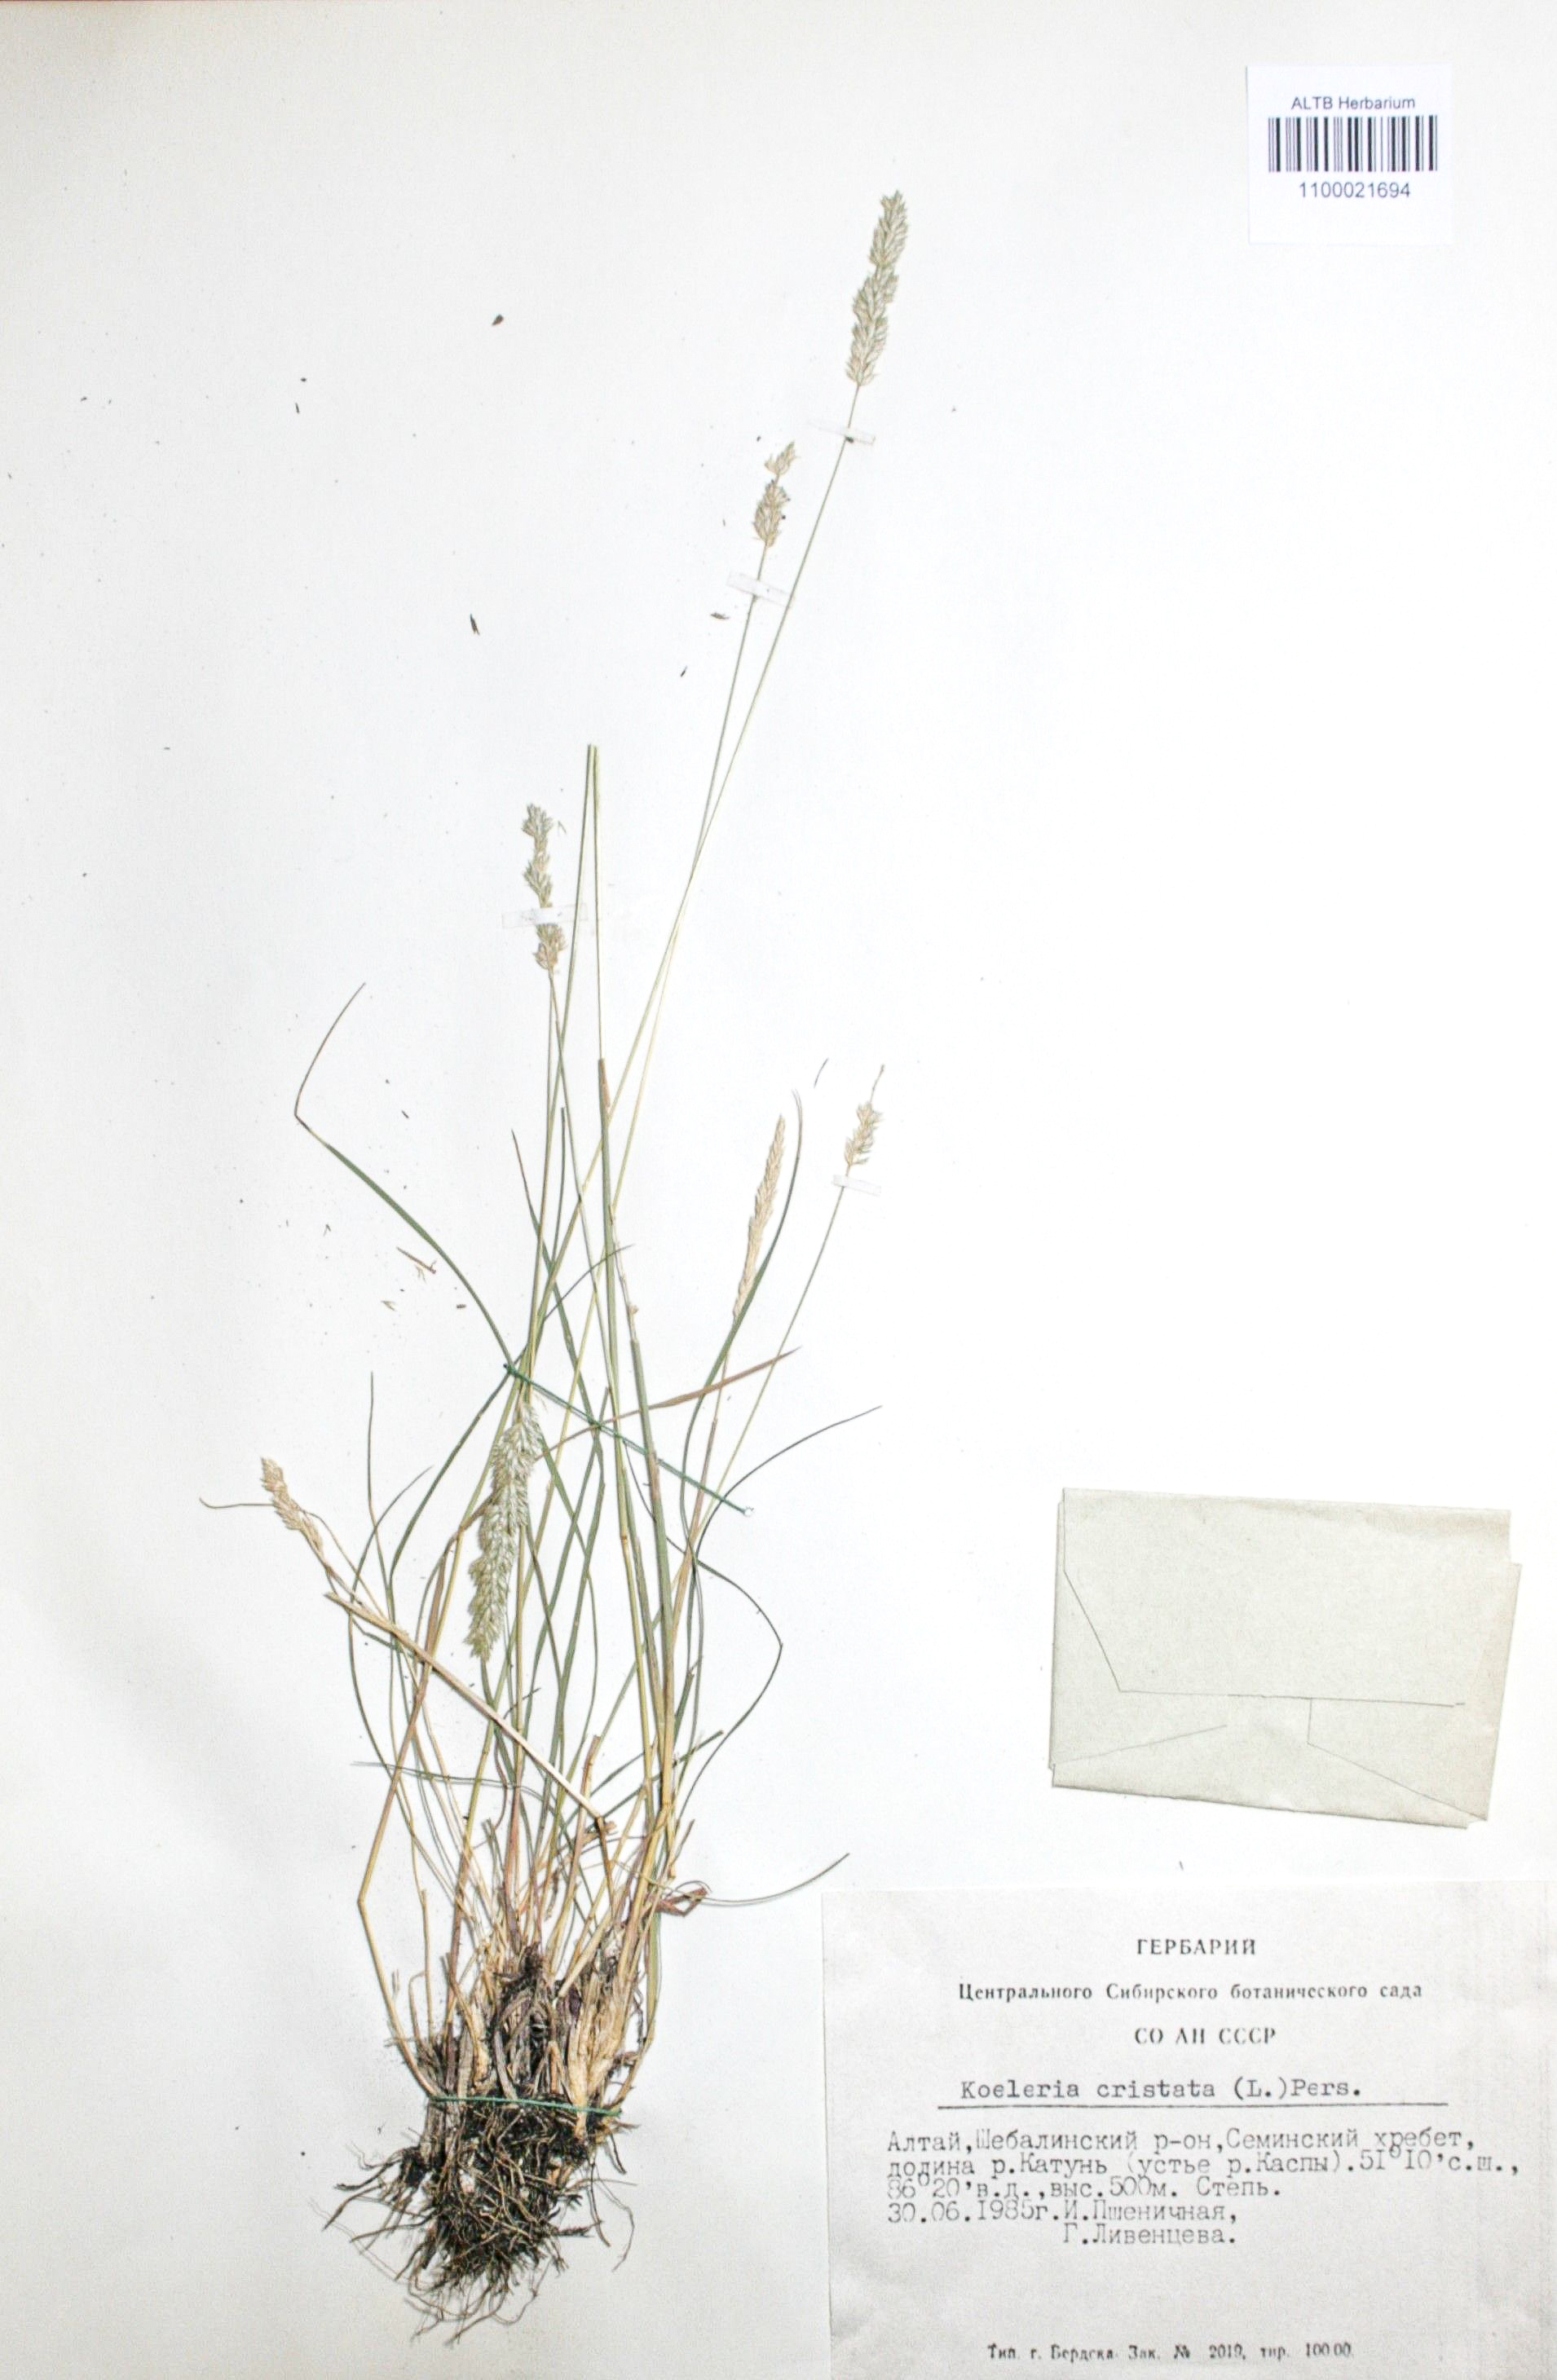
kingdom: Plantae
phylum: Tracheophyta
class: Liliopsida
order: Poales
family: Poaceae
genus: Koeleria
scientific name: Koeleria pyramidata
